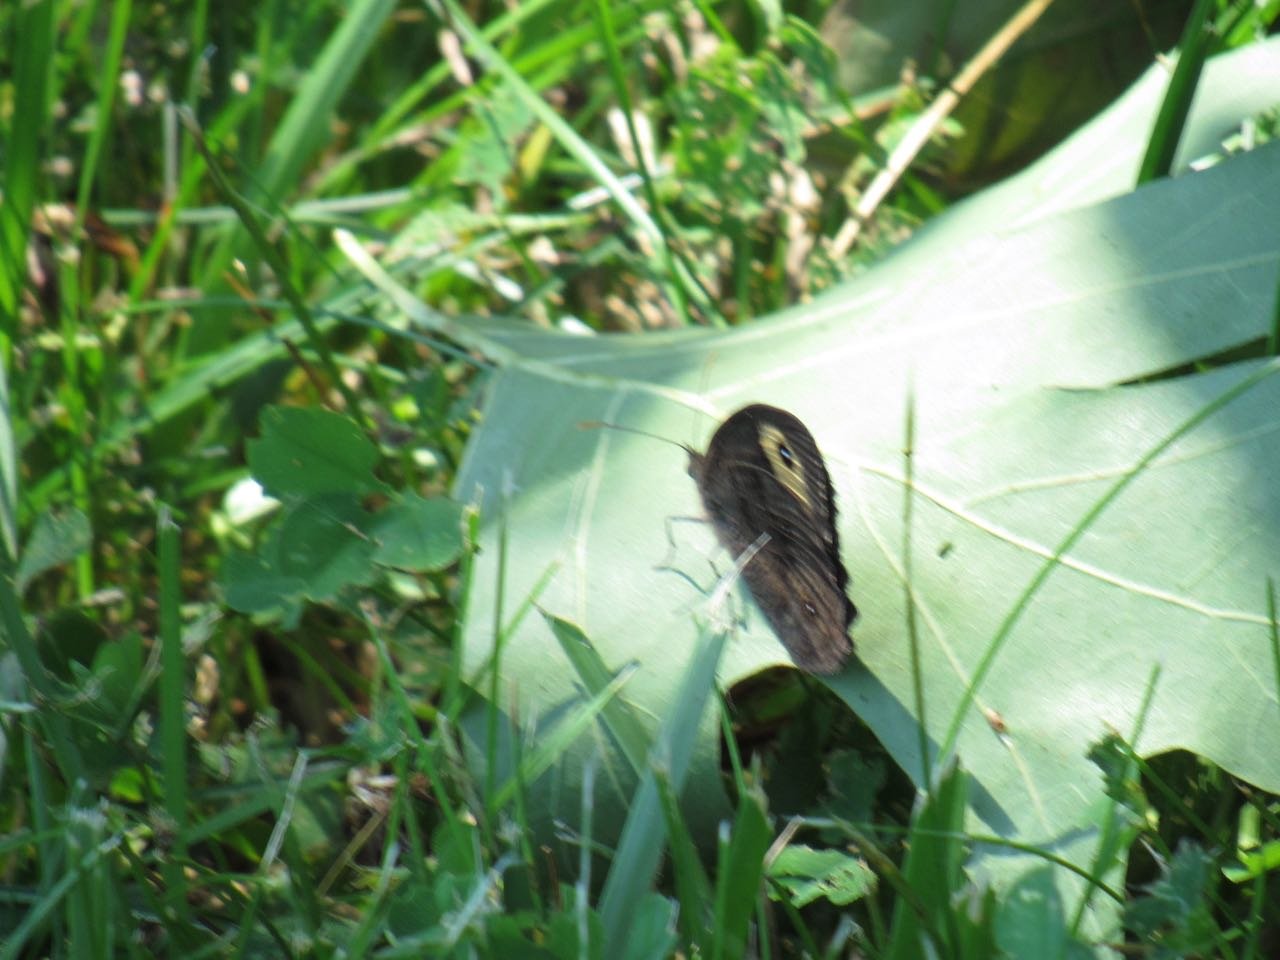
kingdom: Animalia
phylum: Arthropoda
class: Insecta
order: Lepidoptera
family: Nymphalidae
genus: Cercyonis
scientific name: Cercyonis pegala
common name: Common Wood-Nymph
